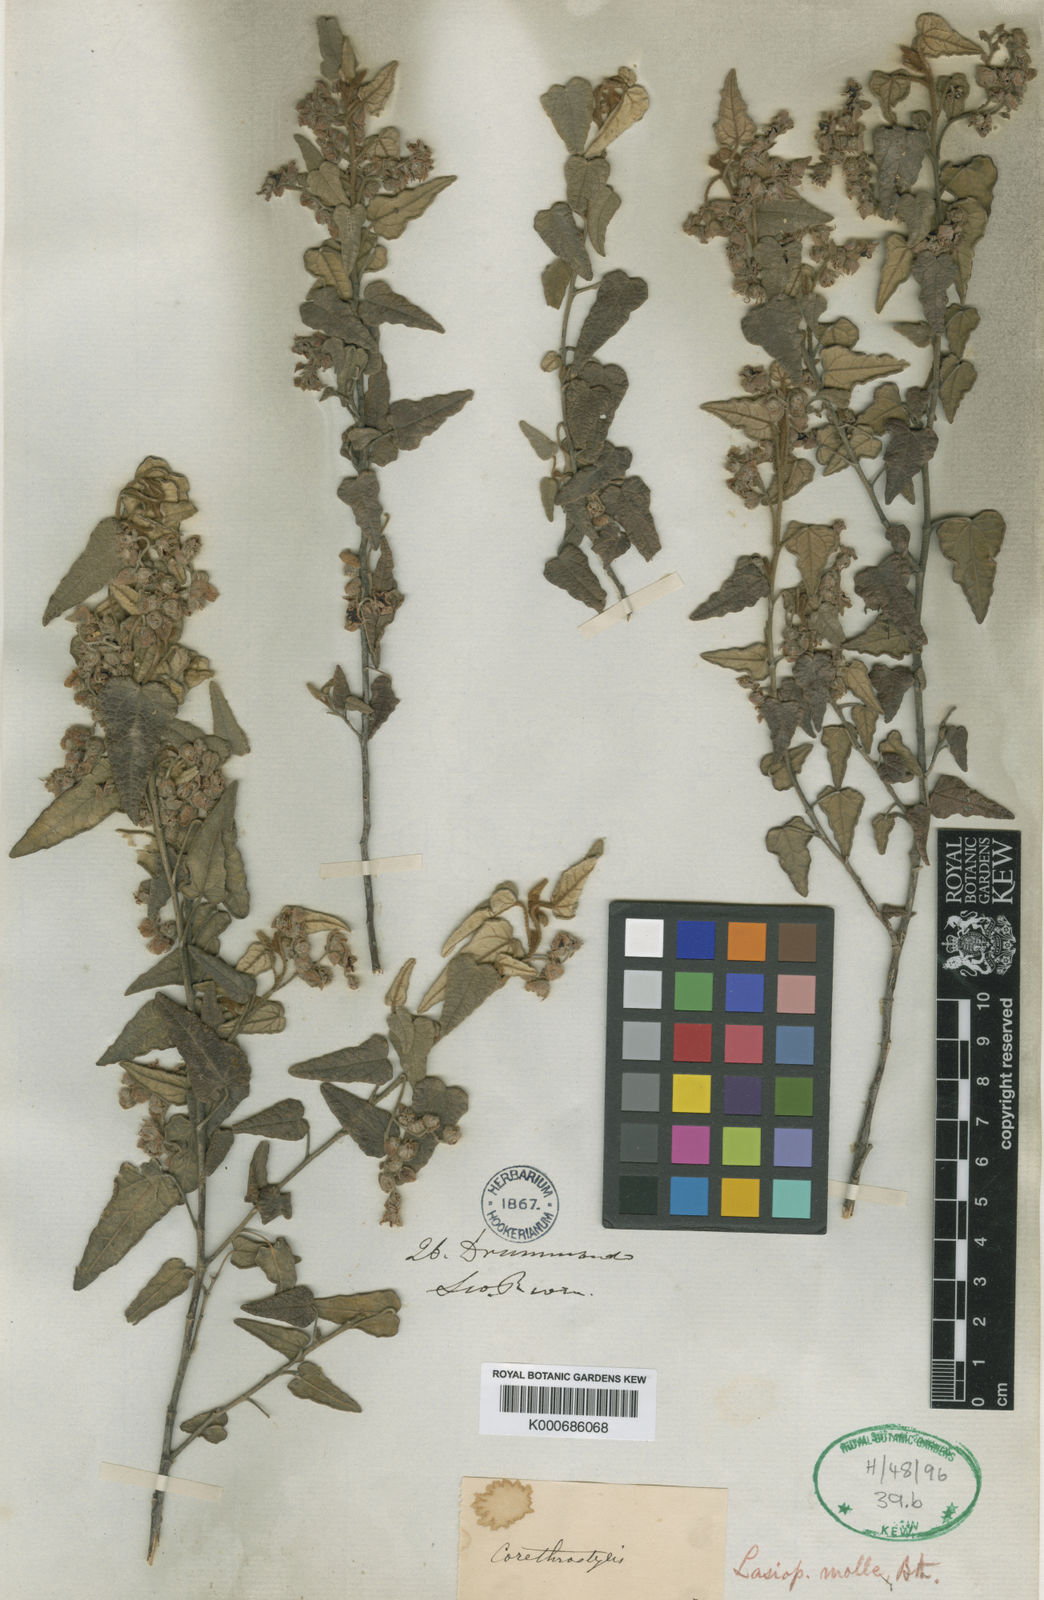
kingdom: Plantae
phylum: Tracheophyta
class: Magnoliopsida
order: Malvales
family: Malvaceae
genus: Lasiopetalum
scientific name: Lasiopetalum molle
